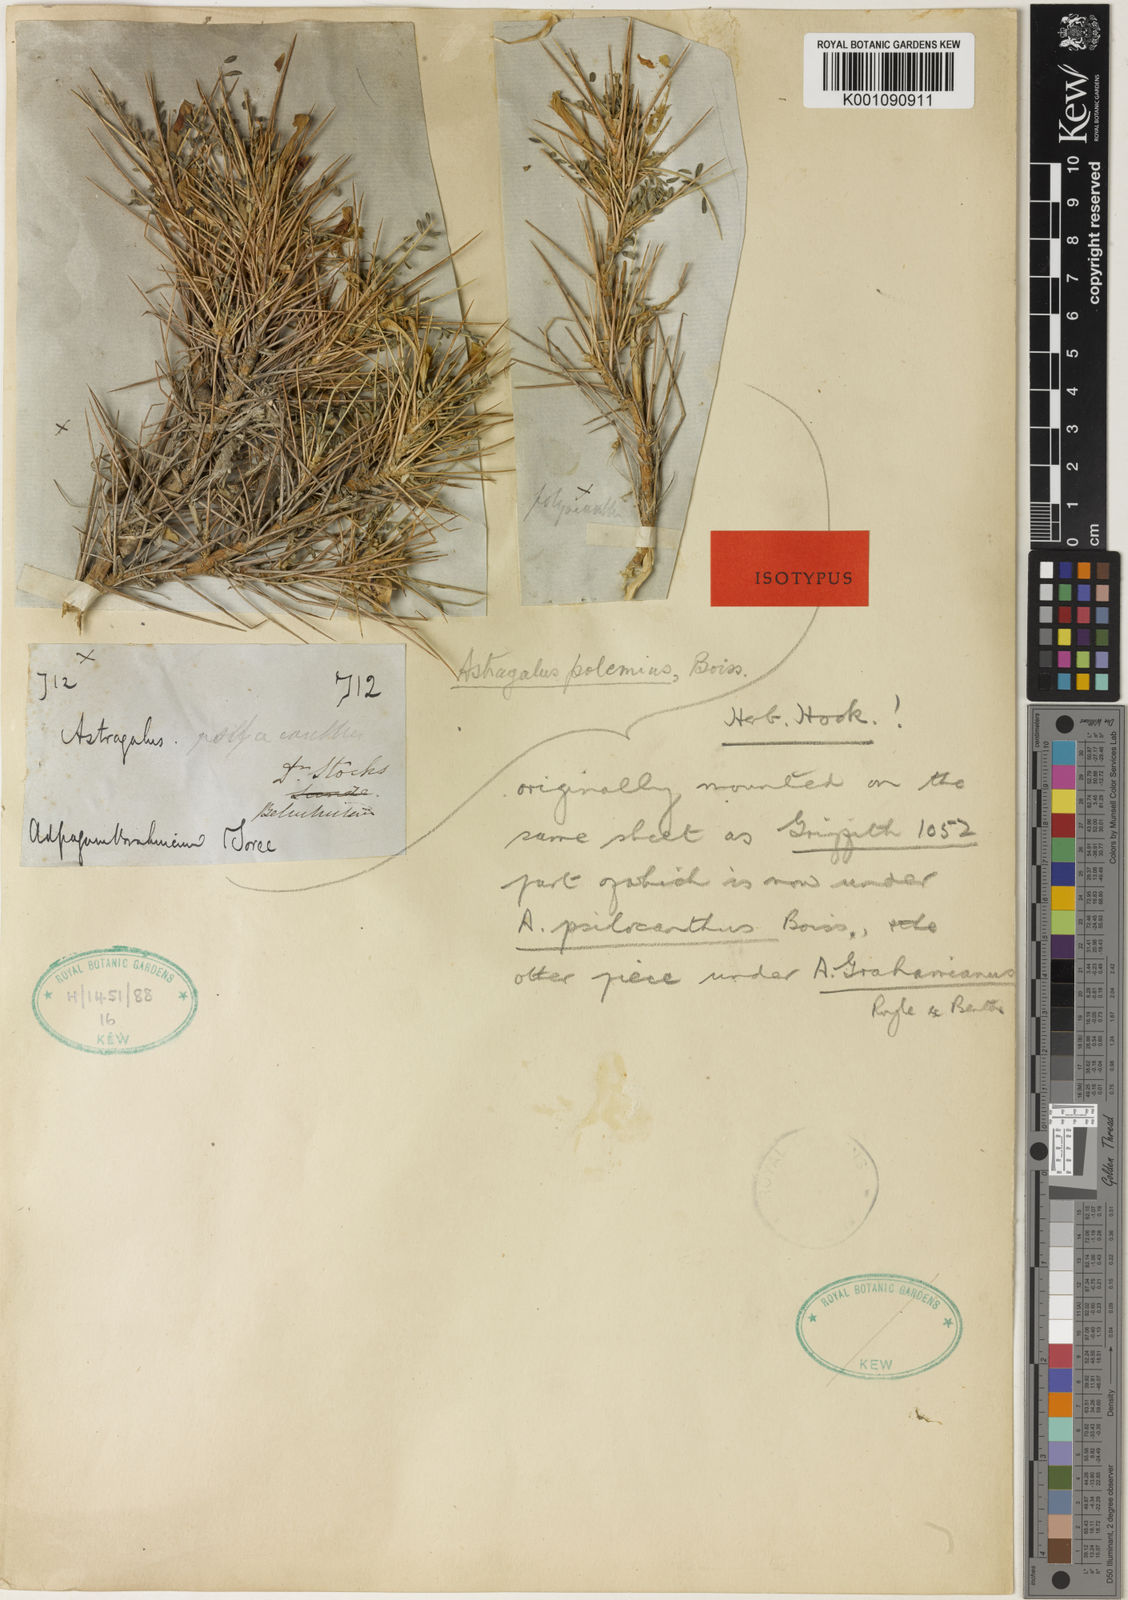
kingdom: Plantae
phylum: Tracheophyta
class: Magnoliopsida
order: Fabales
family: Fabaceae
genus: Astragalus
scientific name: Astragalus
